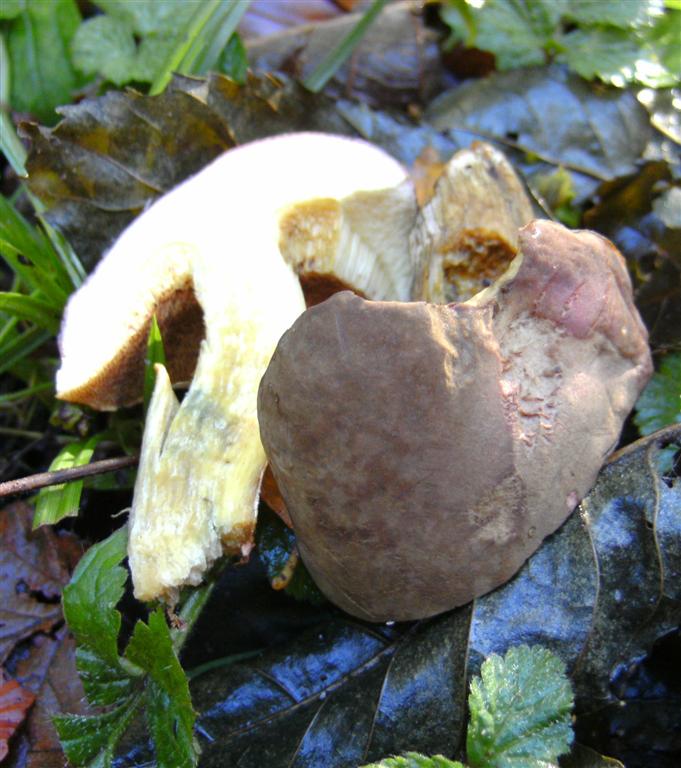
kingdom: Fungi
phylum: Basidiomycota
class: Agaricomycetes
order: Boletales
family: Boletaceae
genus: Xerocomellus
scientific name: Xerocomellus pruinatus
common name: dugget rørhat
